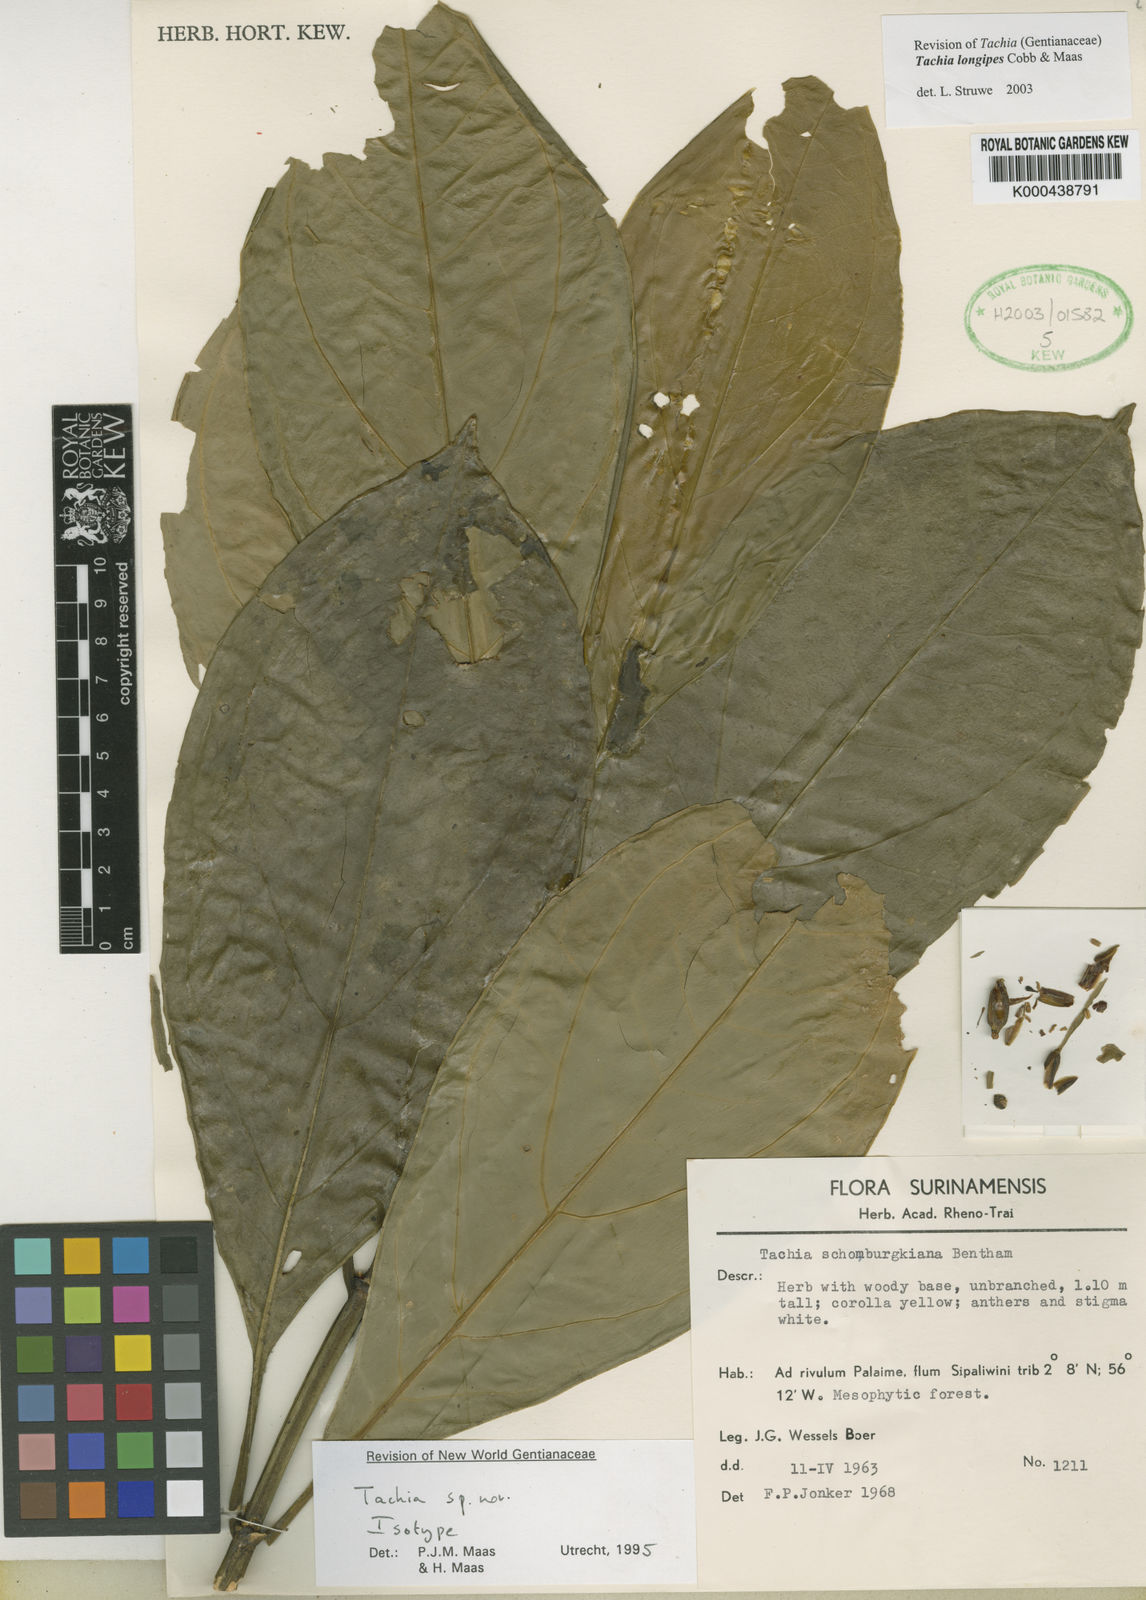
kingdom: Plantae
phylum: Tracheophyta
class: Magnoliopsida
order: Gentianales
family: Gentianaceae
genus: Tachia
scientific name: Tachia longipes
